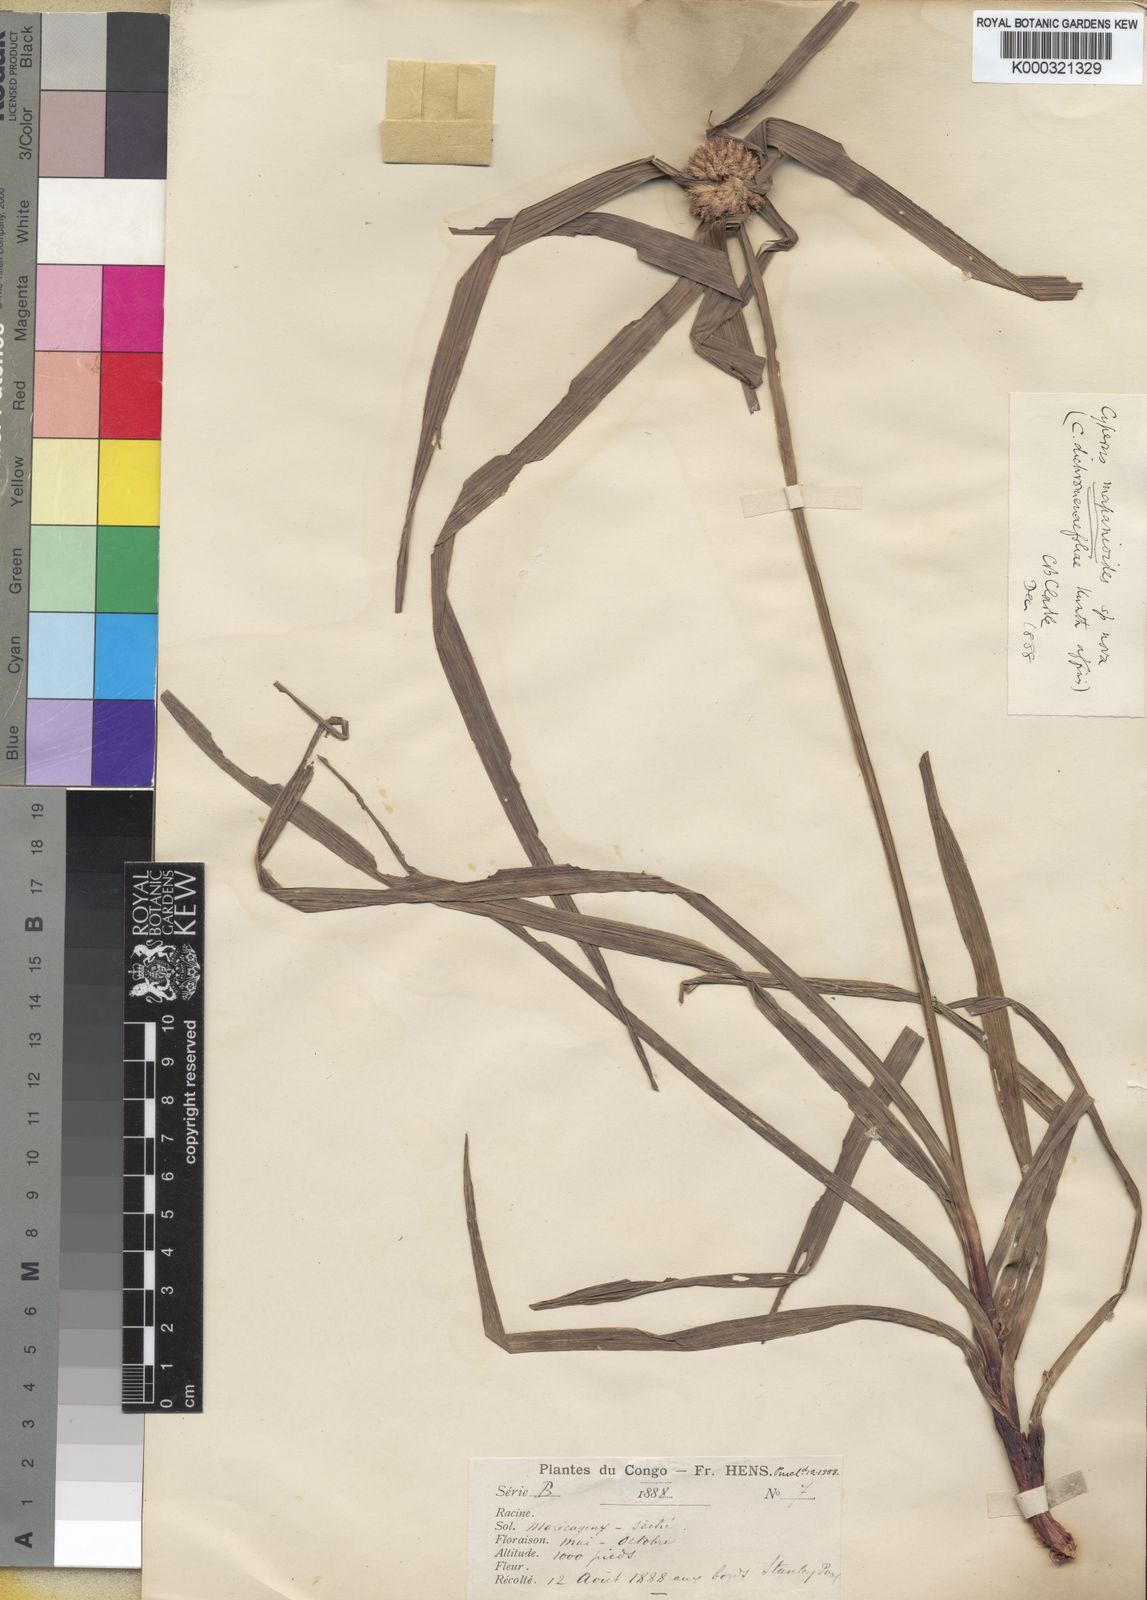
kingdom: Plantae
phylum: Tracheophyta
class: Liliopsida
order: Poales
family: Cyperaceae
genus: Cyperus
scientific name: Cyperus mapanioides
